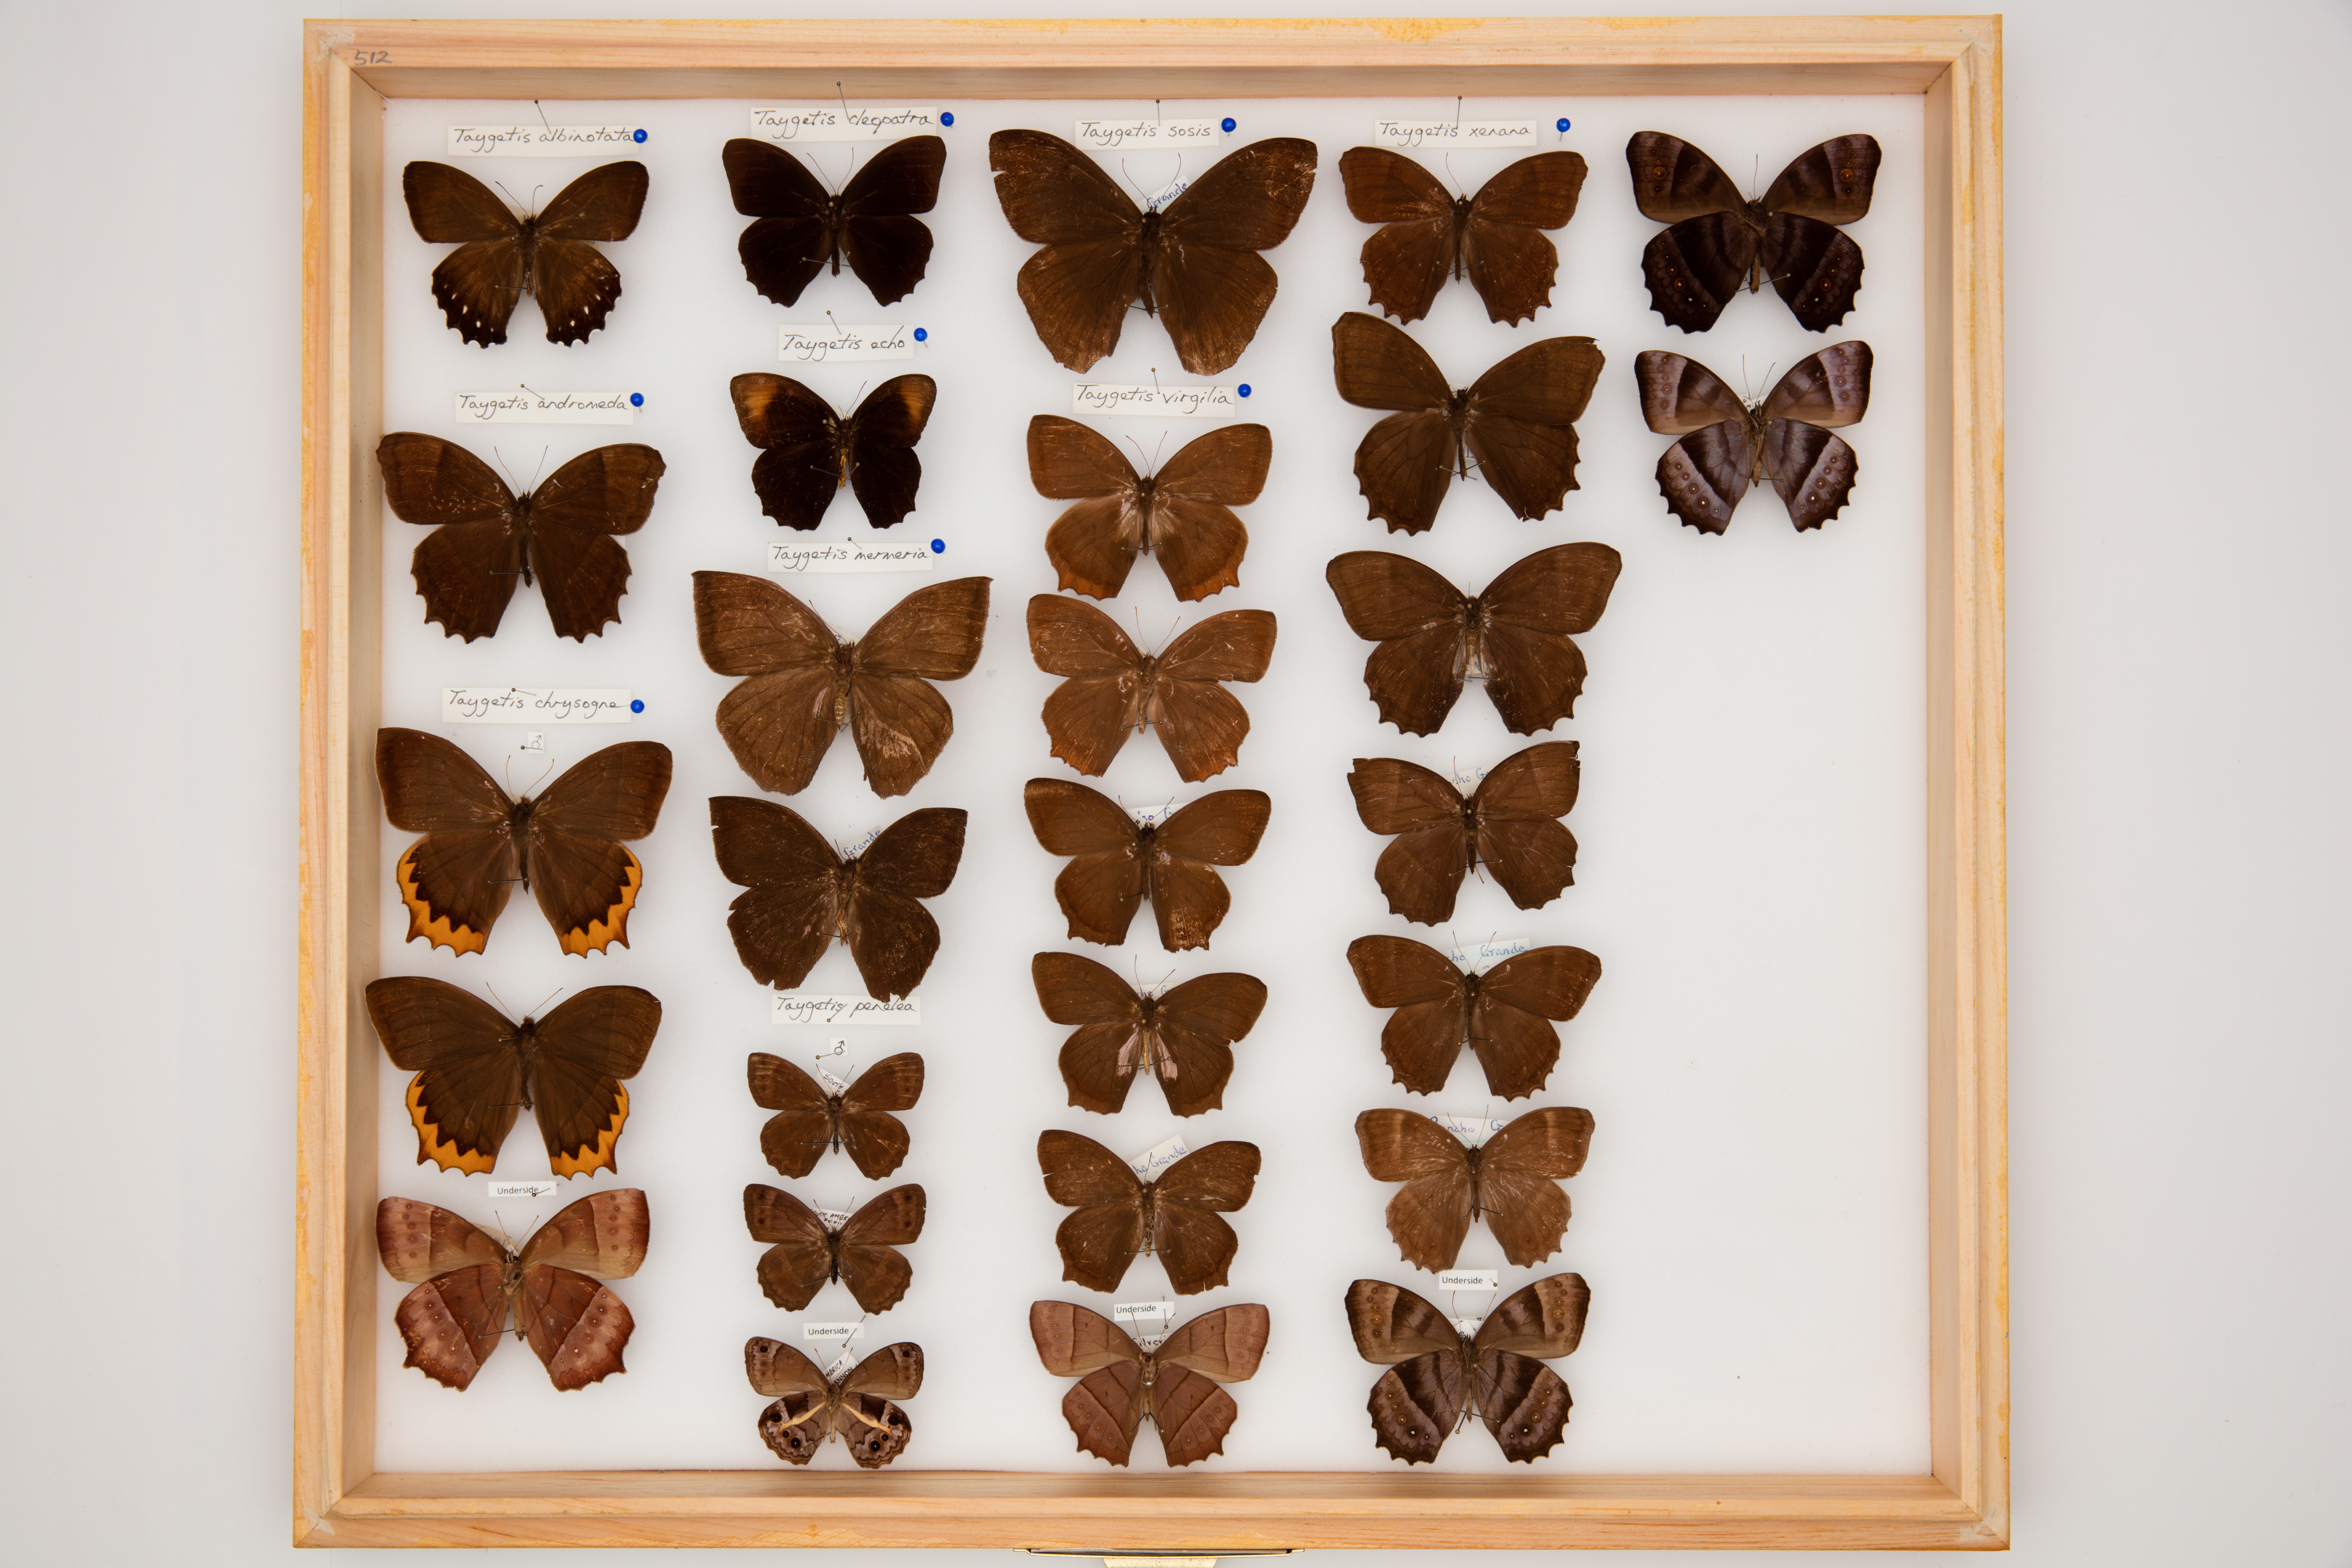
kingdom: Animalia
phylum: Arthropoda
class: Insecta
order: Lepidoptera
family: Nymphalidae
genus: Taygetis
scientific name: Taygetis echo
